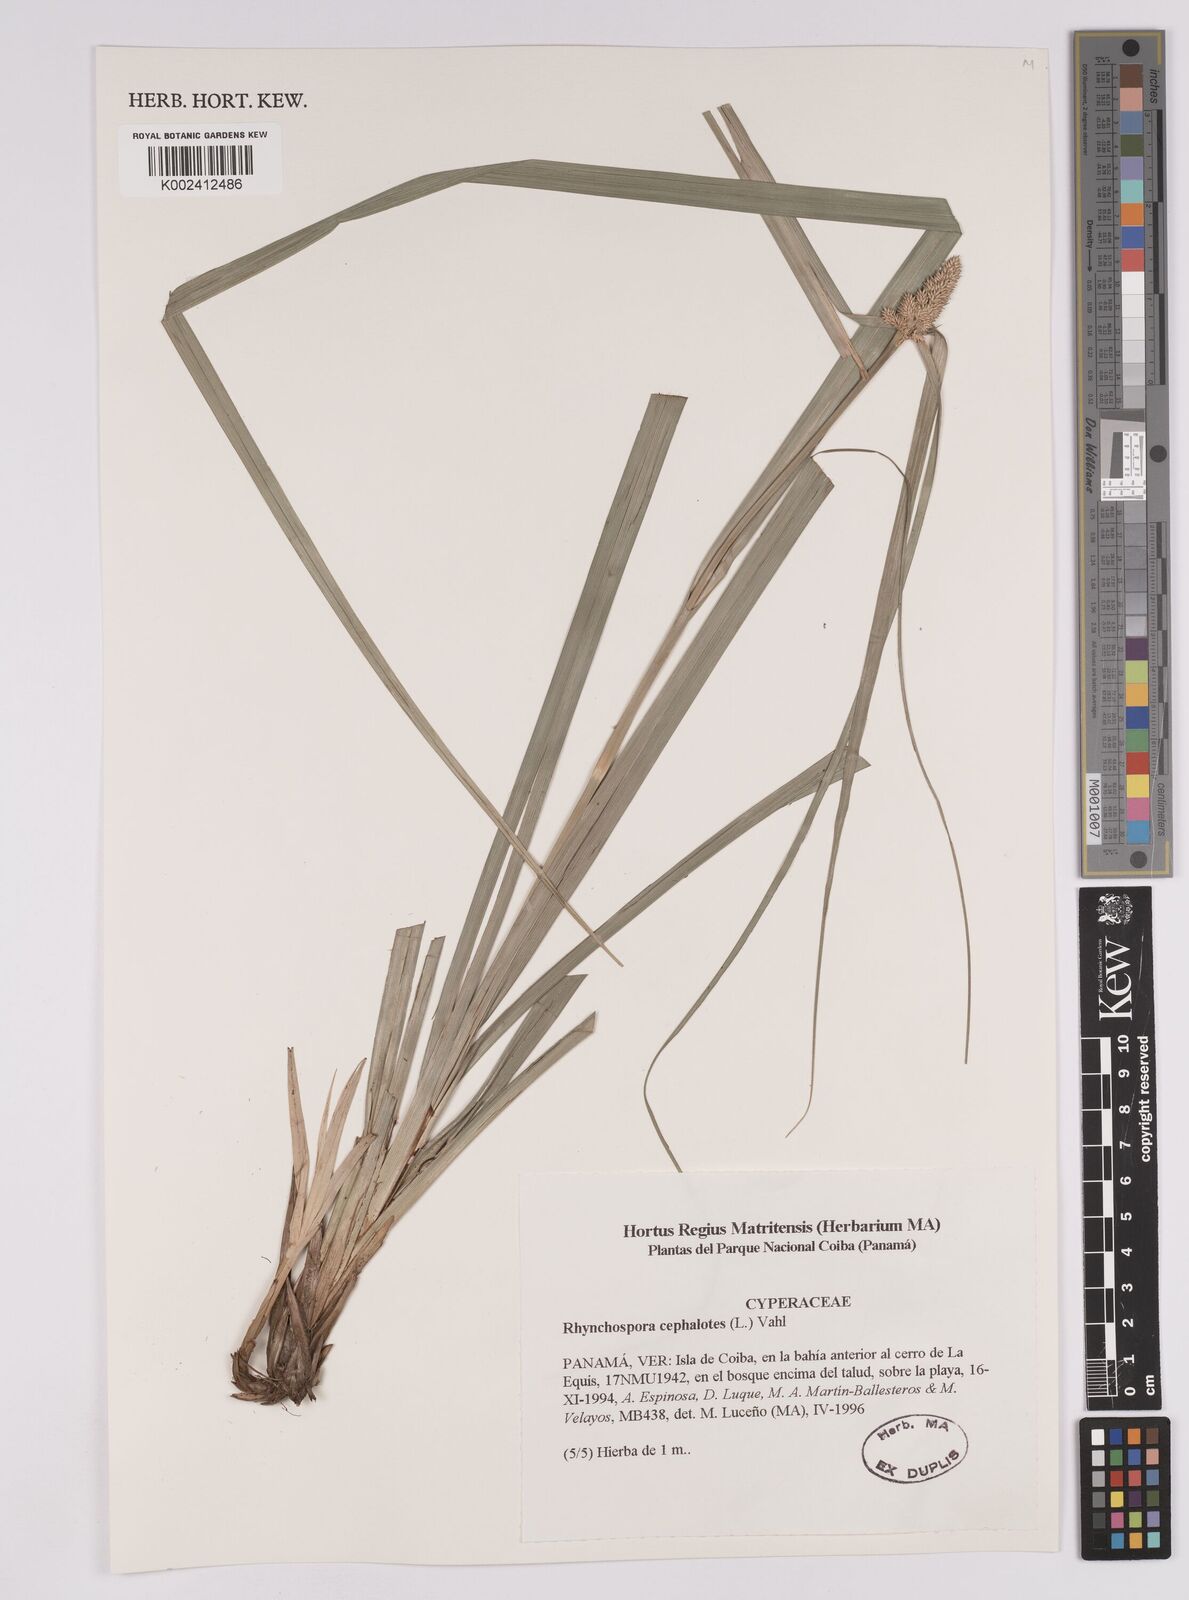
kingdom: Plantae
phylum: Tracheophyta
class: Liliopsida
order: Poales
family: Cyperaceae
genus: Rhynchospora
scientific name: Rhynchospora cephalotes
